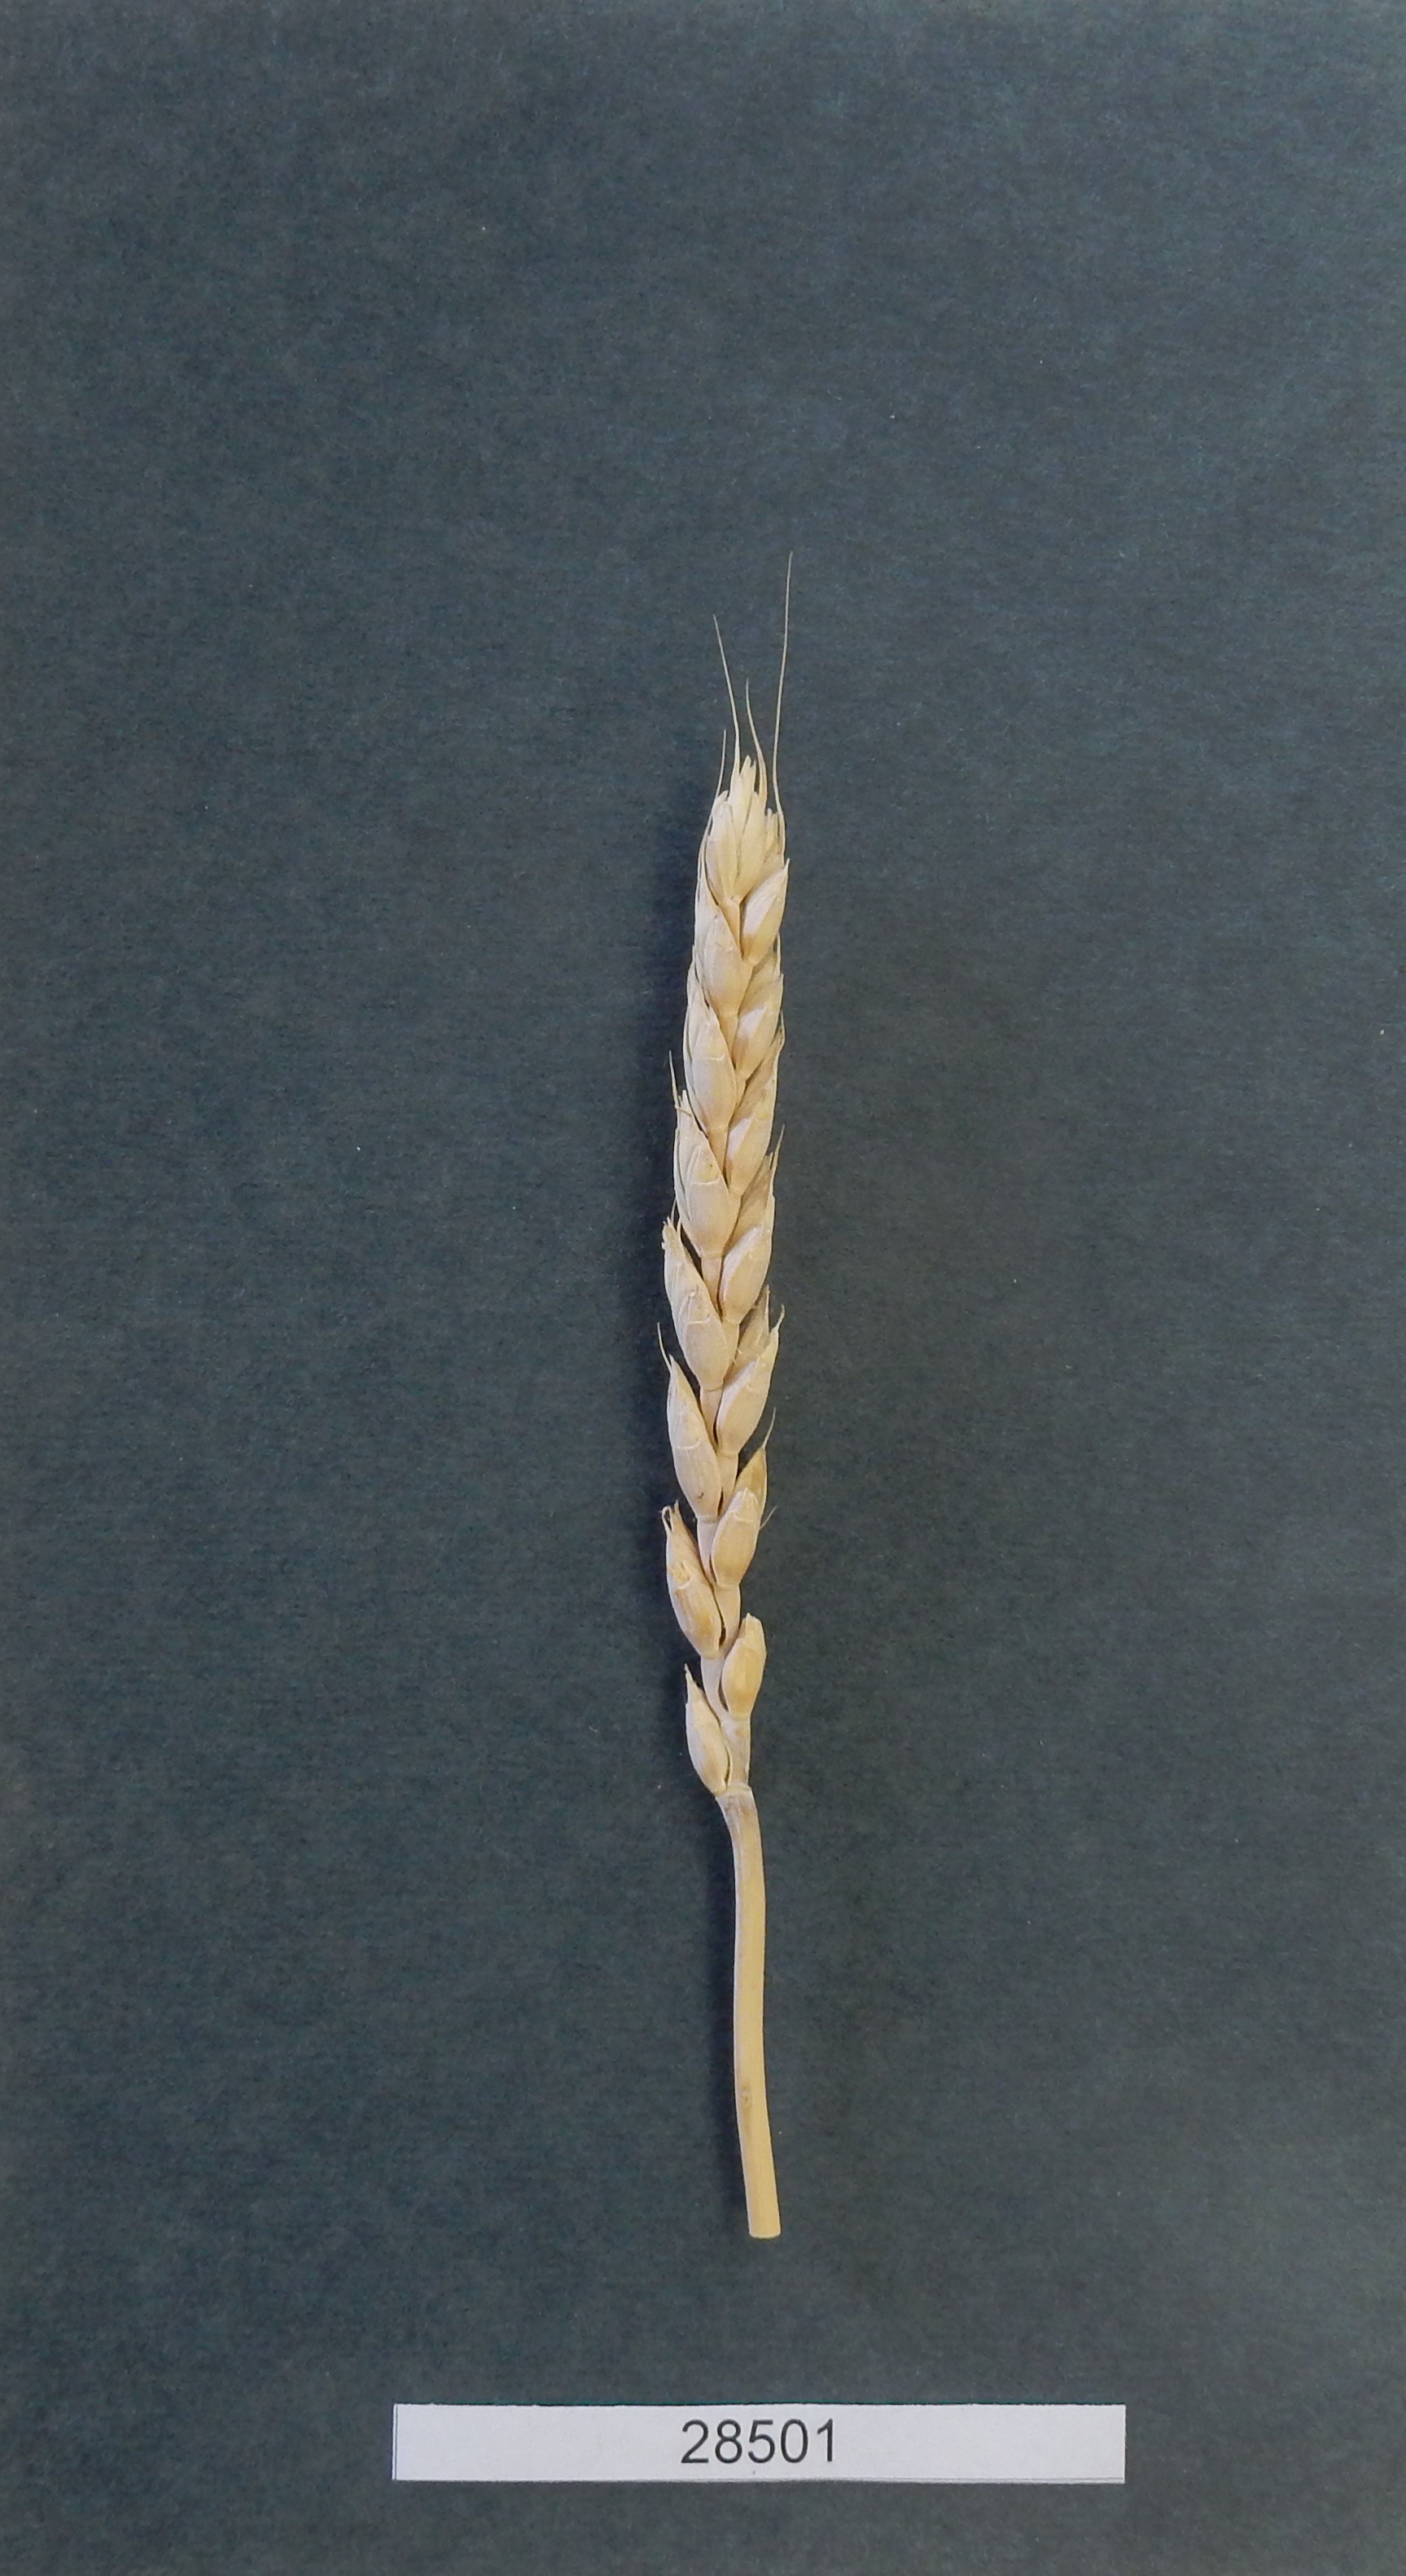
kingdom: Plantae
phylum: Tracheophyta
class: Liliopsida
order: Poales
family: Poaceae
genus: Triticum
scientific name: Triticum turgidum
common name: Wheat
